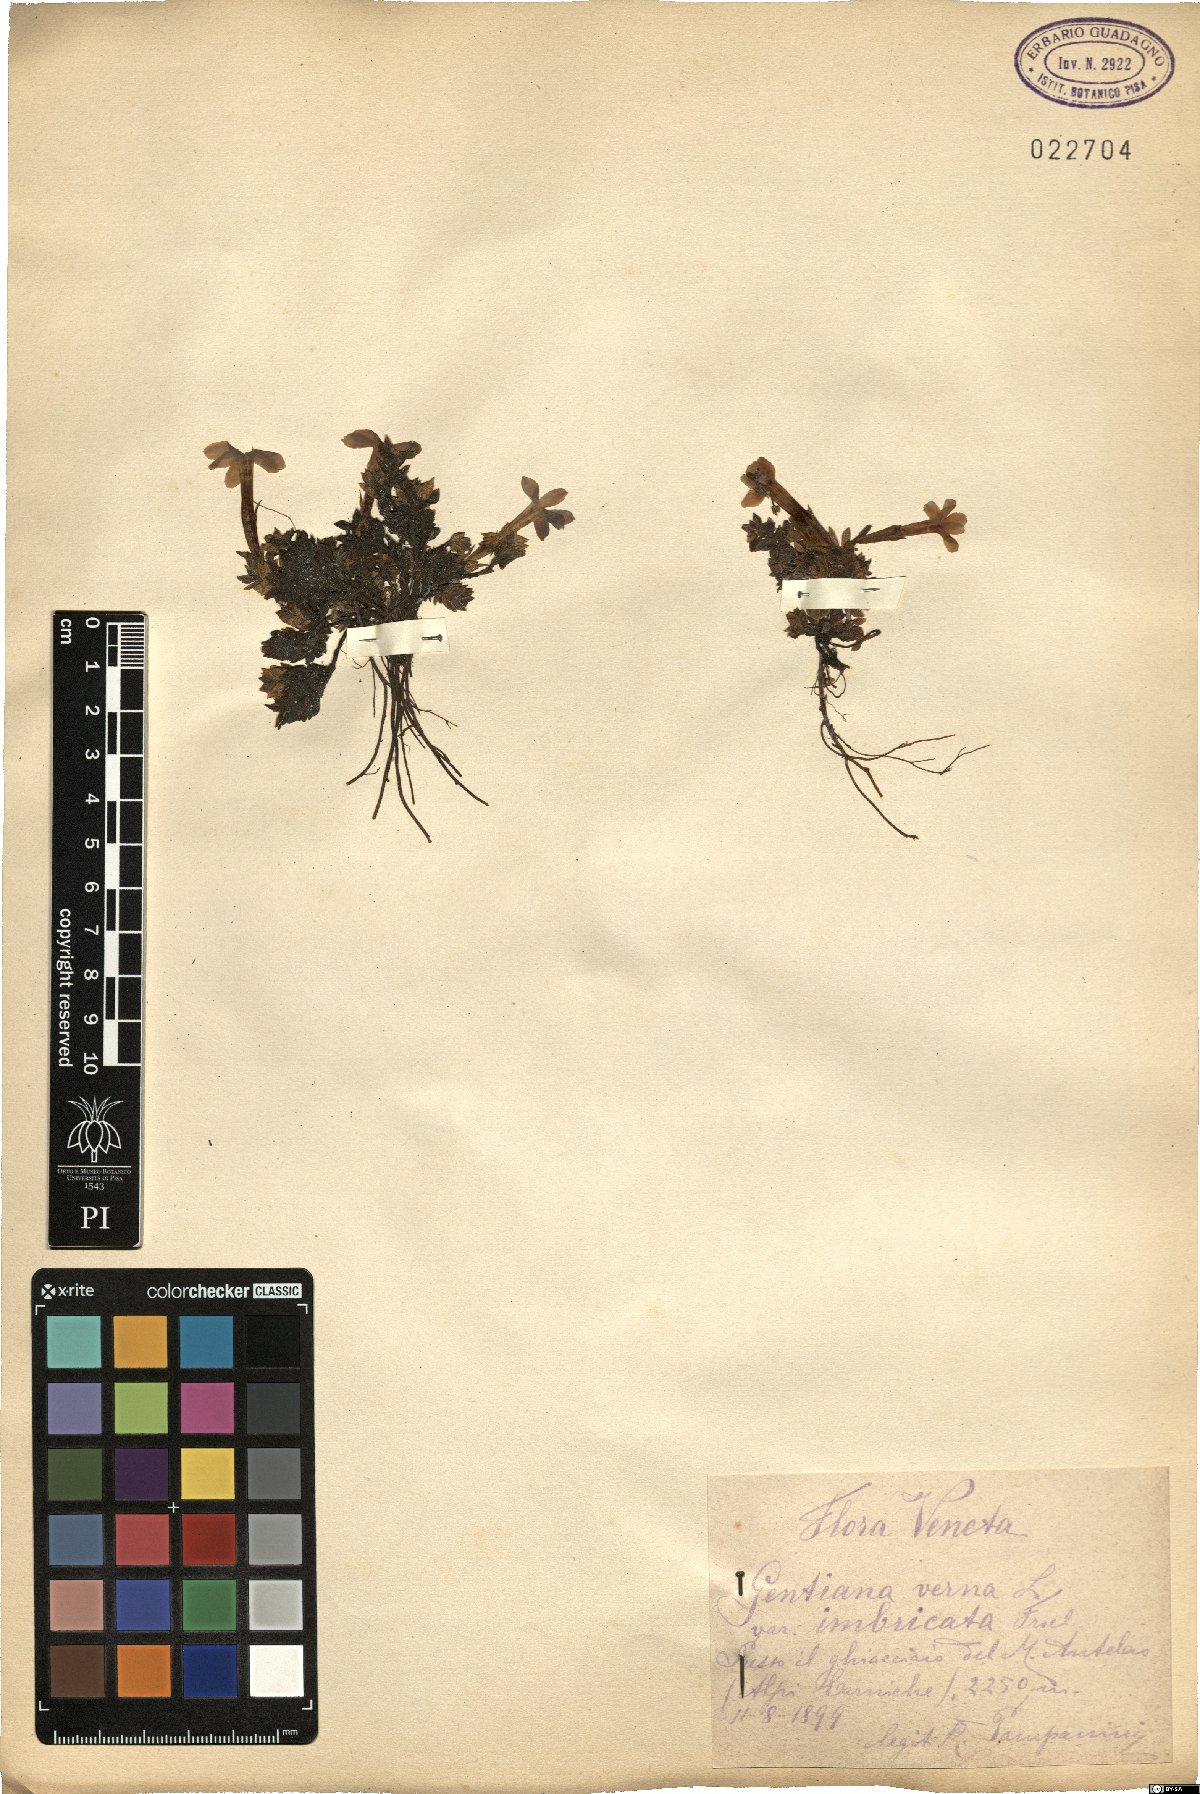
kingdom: Plantae
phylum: Tracheophyta
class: Magnoliopsida
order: Gentianales
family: Gentianaceae
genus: Gentiana
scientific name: Gentiana terglouensis
